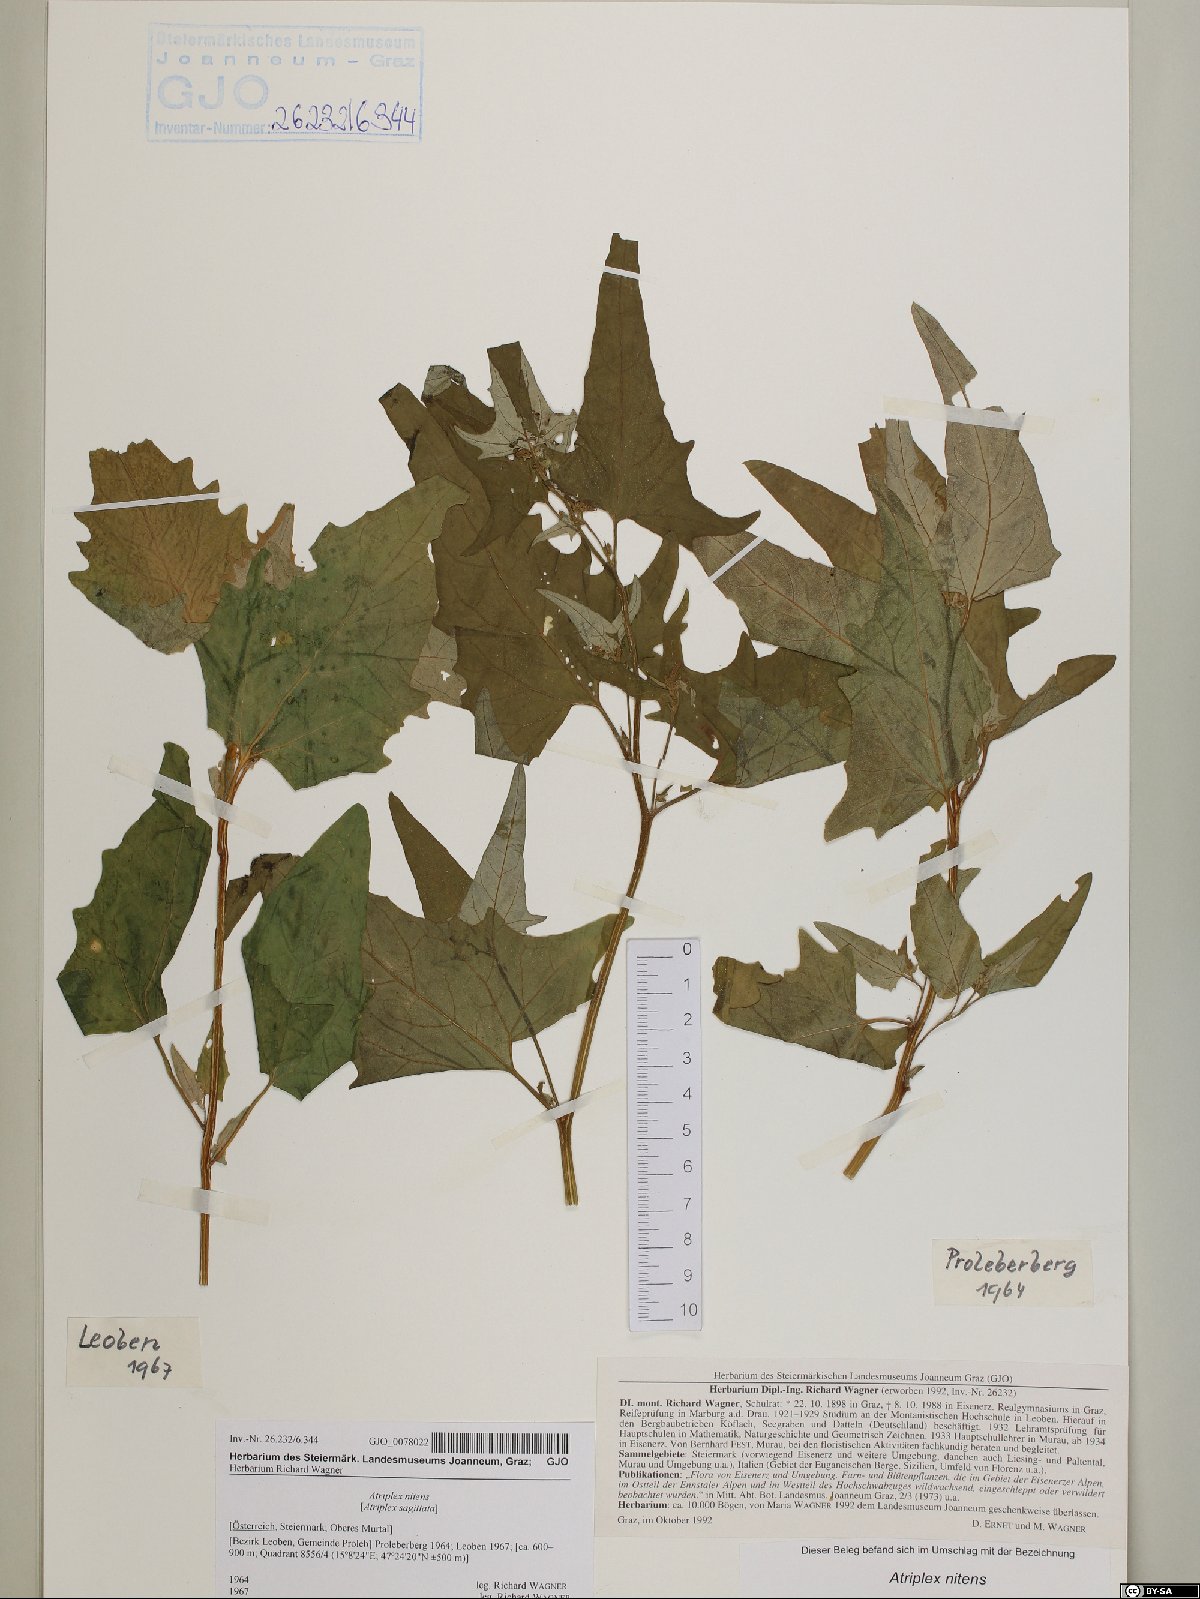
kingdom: Plantae
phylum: Tracheophyta
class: Magnoliopsida
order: Caryophyllales
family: Amaranthaceae
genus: Atriplex
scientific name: Atriplex sagittata
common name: Purple orache
